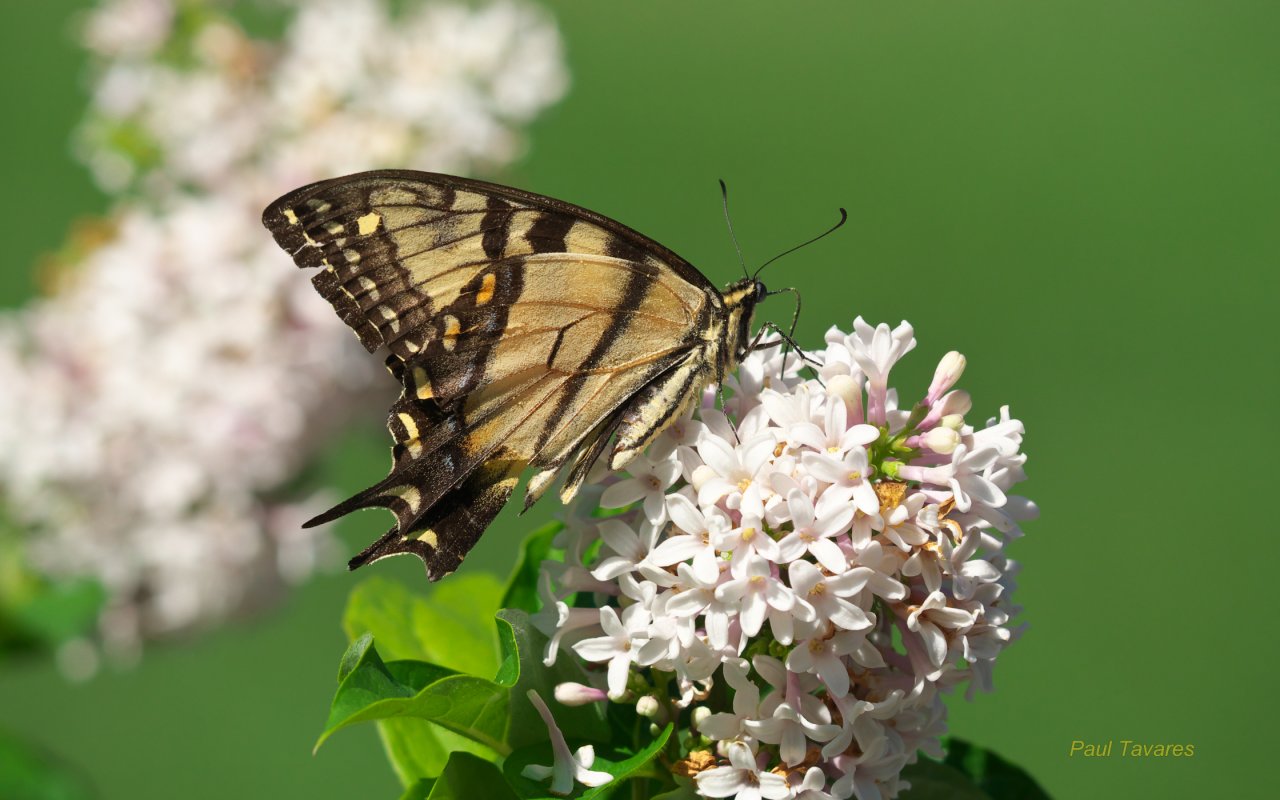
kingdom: Animalia
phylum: Arthropoda
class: Insecta
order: Lepidoptera
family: Papilionidae
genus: Pterourus
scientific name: Pterourus glaucus
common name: Eastern Tiger Swallowtail
